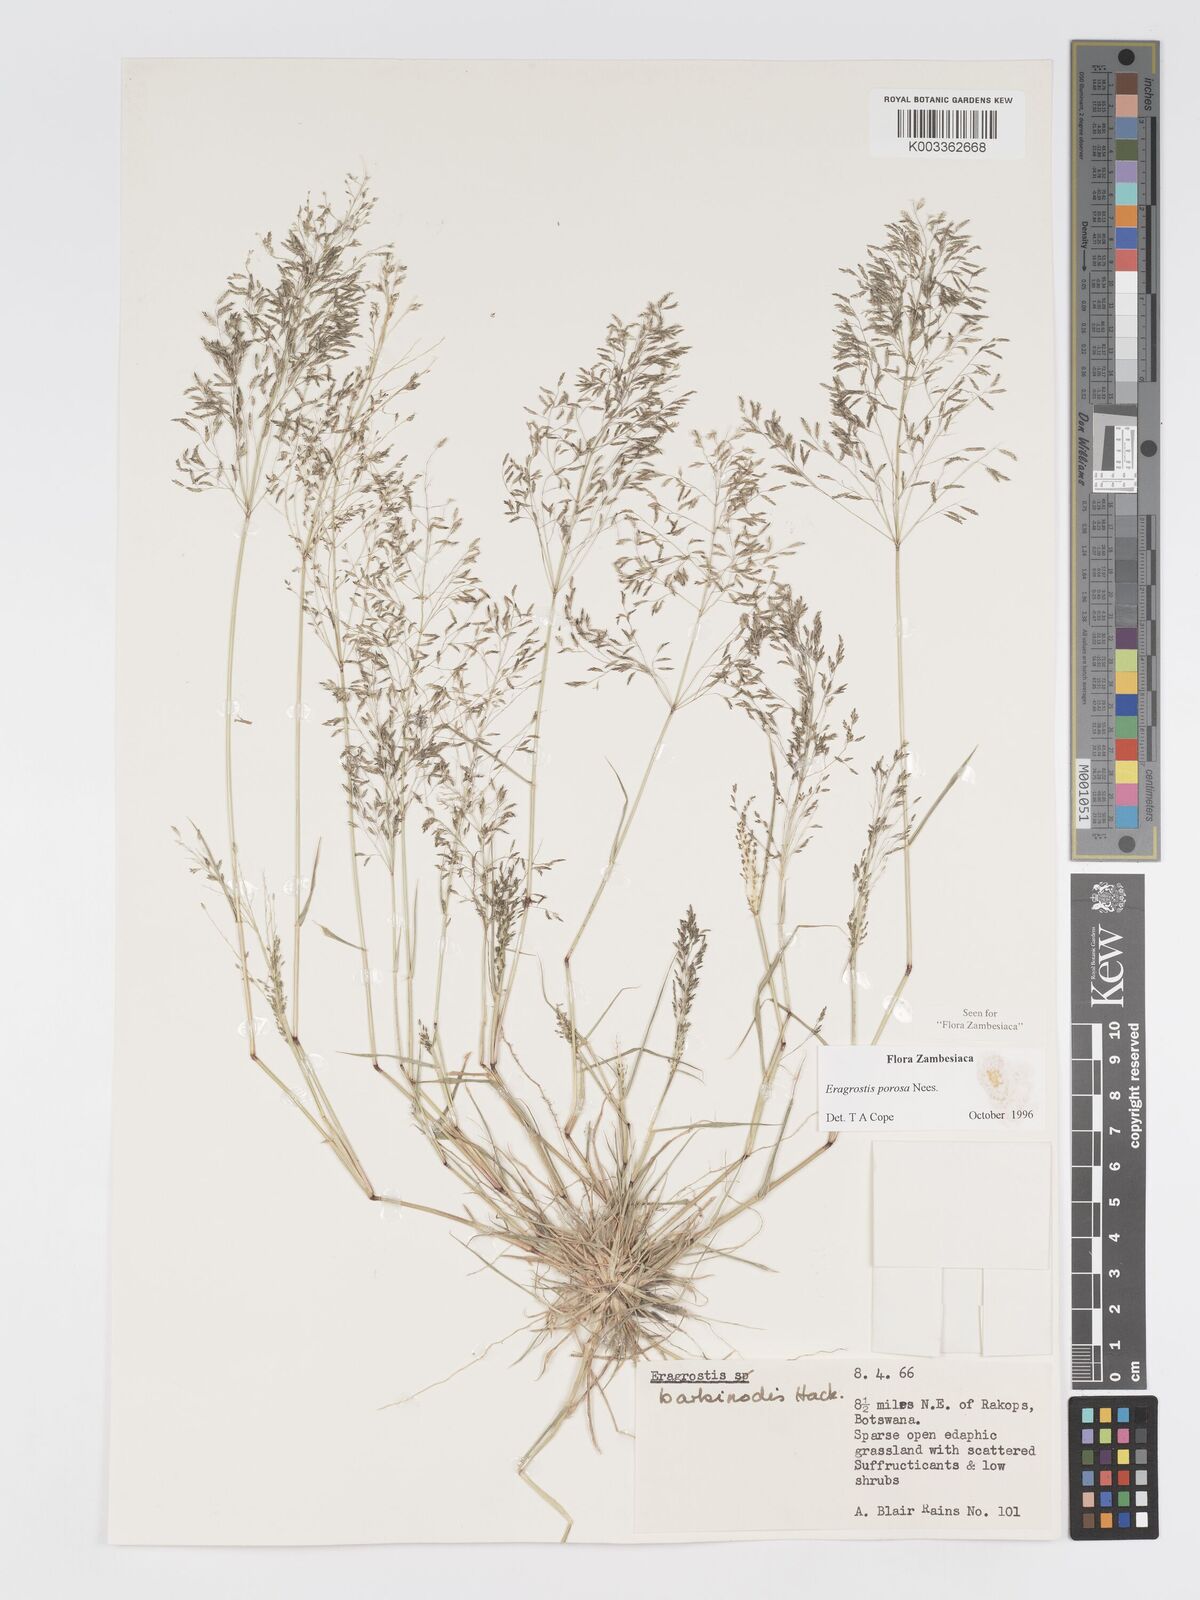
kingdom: Plantae
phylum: Tracheophyta
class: Liliopsida
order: Poales
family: Poaceae
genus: Eragrostis
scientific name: Eragrostis porosa
